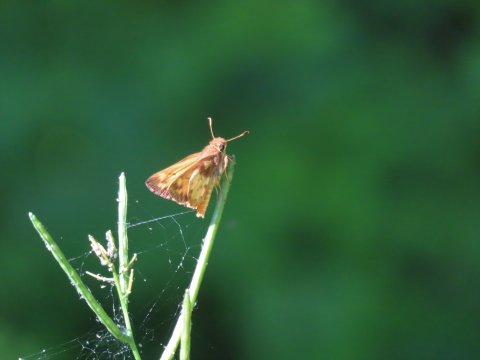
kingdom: Animalia
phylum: Arthropoda
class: Insecta
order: Lepidoptera
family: Hesperiidae
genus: Lon
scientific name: Lon zabulon
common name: Zabulon Skipper
